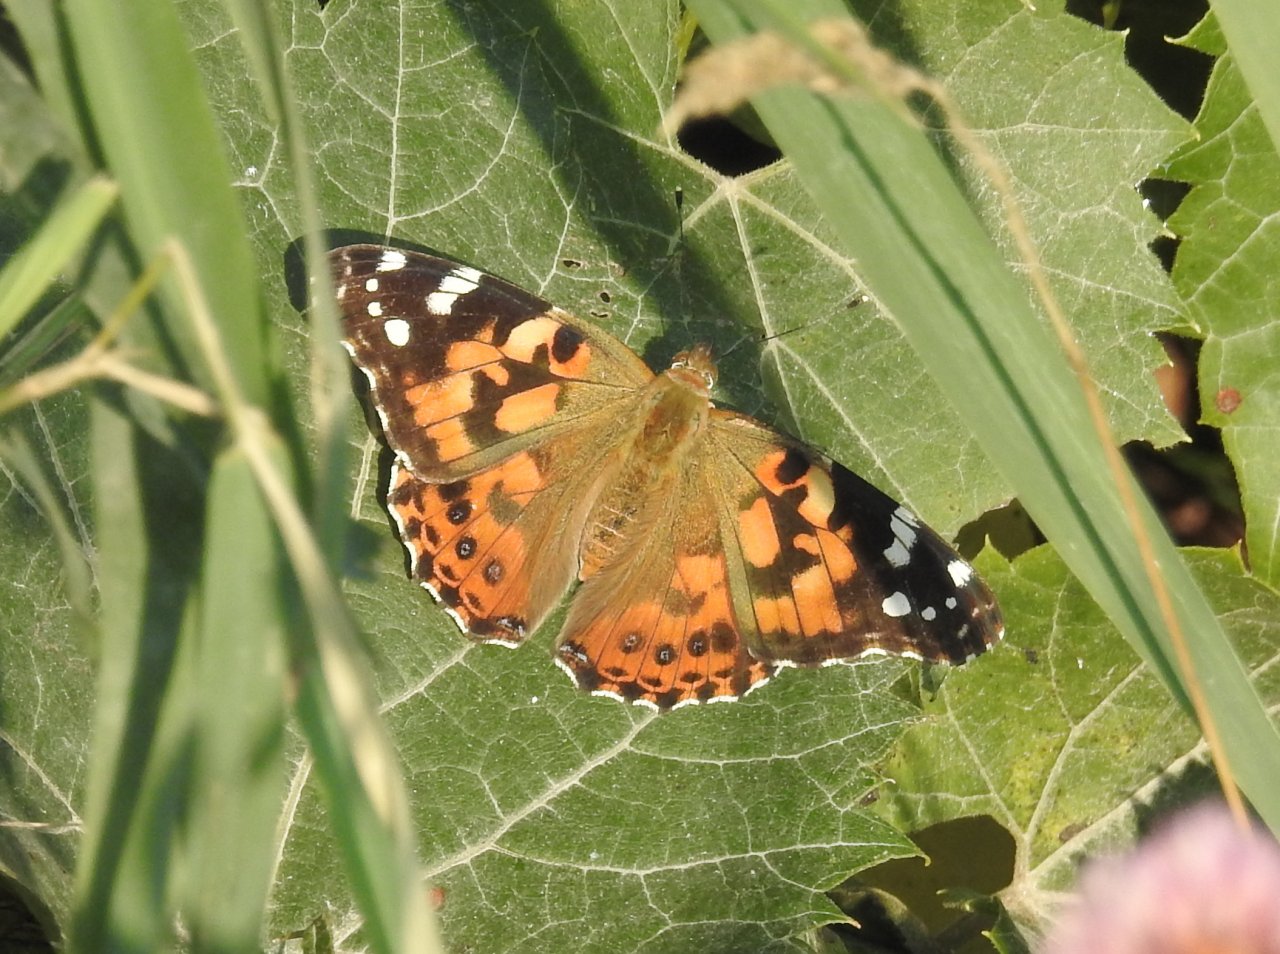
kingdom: Animalia
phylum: Arthropoda
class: Insecta
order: Lepidoptera
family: Nymphalidae
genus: Vanessa
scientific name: Vanessa cardui
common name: Painted Lady
